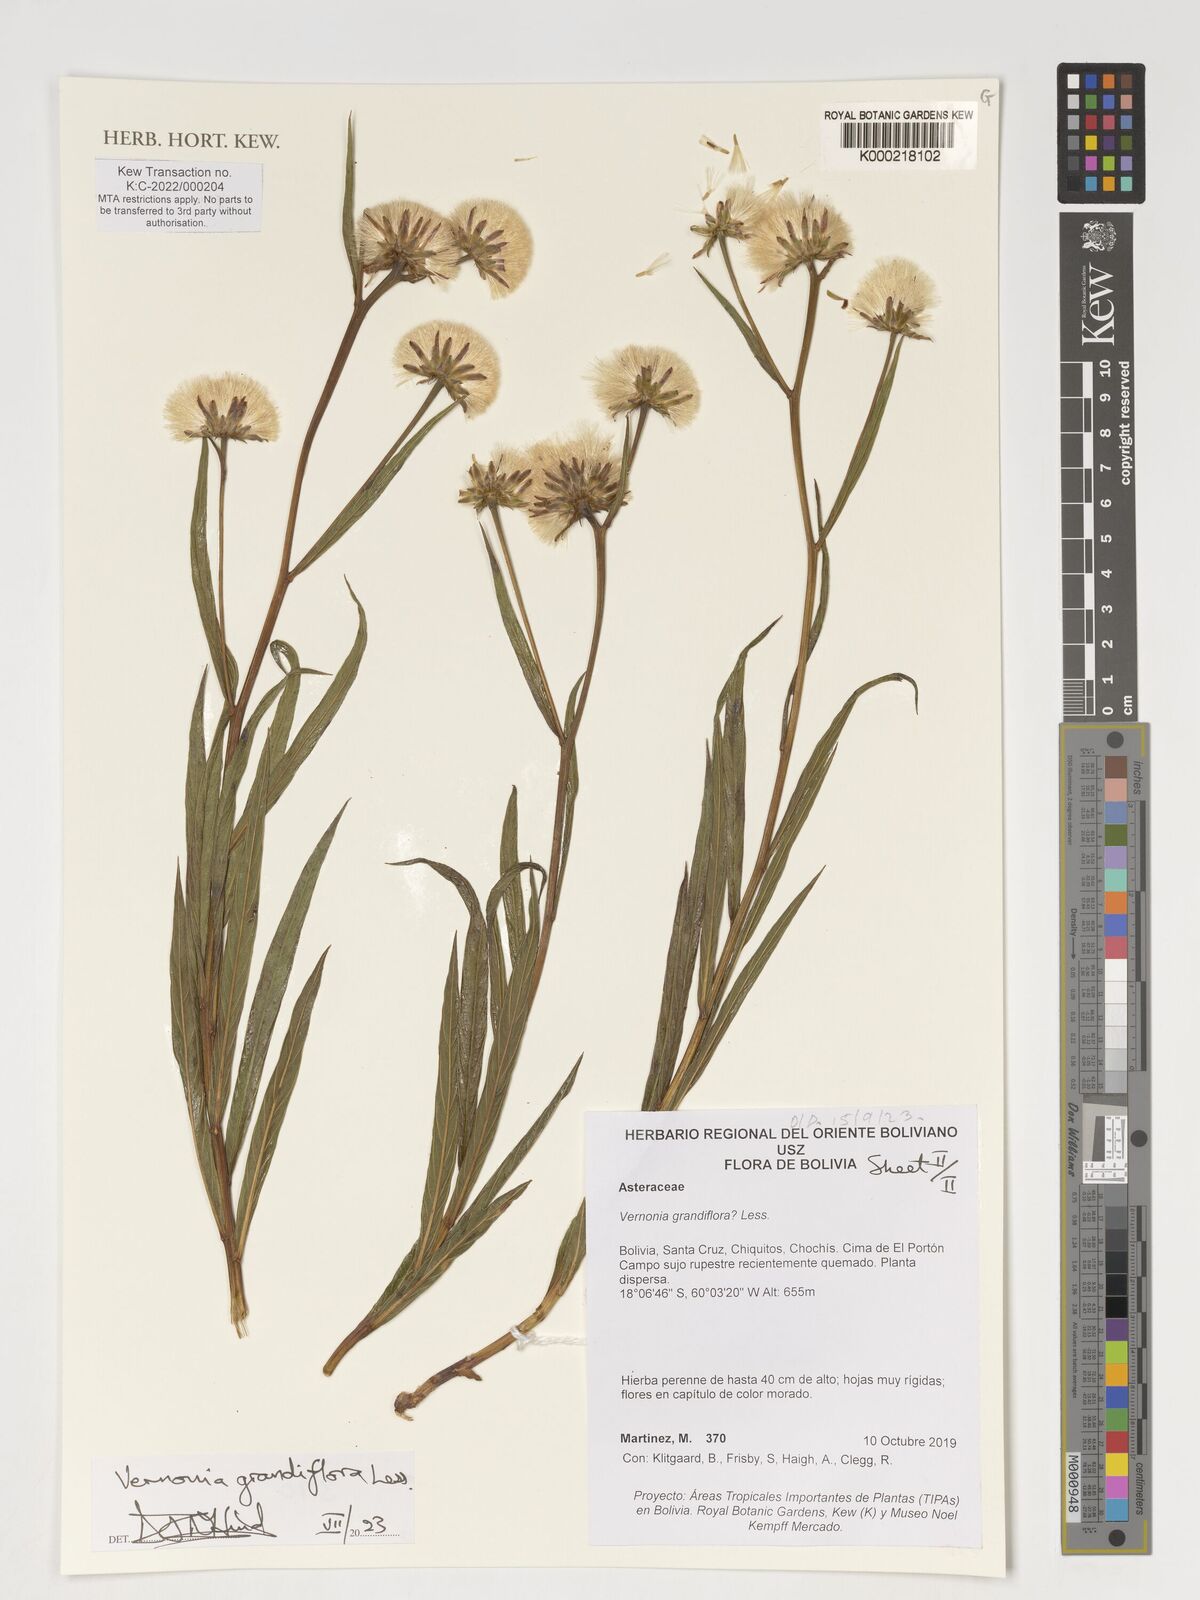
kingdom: Plantae
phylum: Tracheophyta
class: Magnoliopsida
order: Asterales
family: Asteraceae
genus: Lessingianthus
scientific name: Lessingianthus grandiflorus
